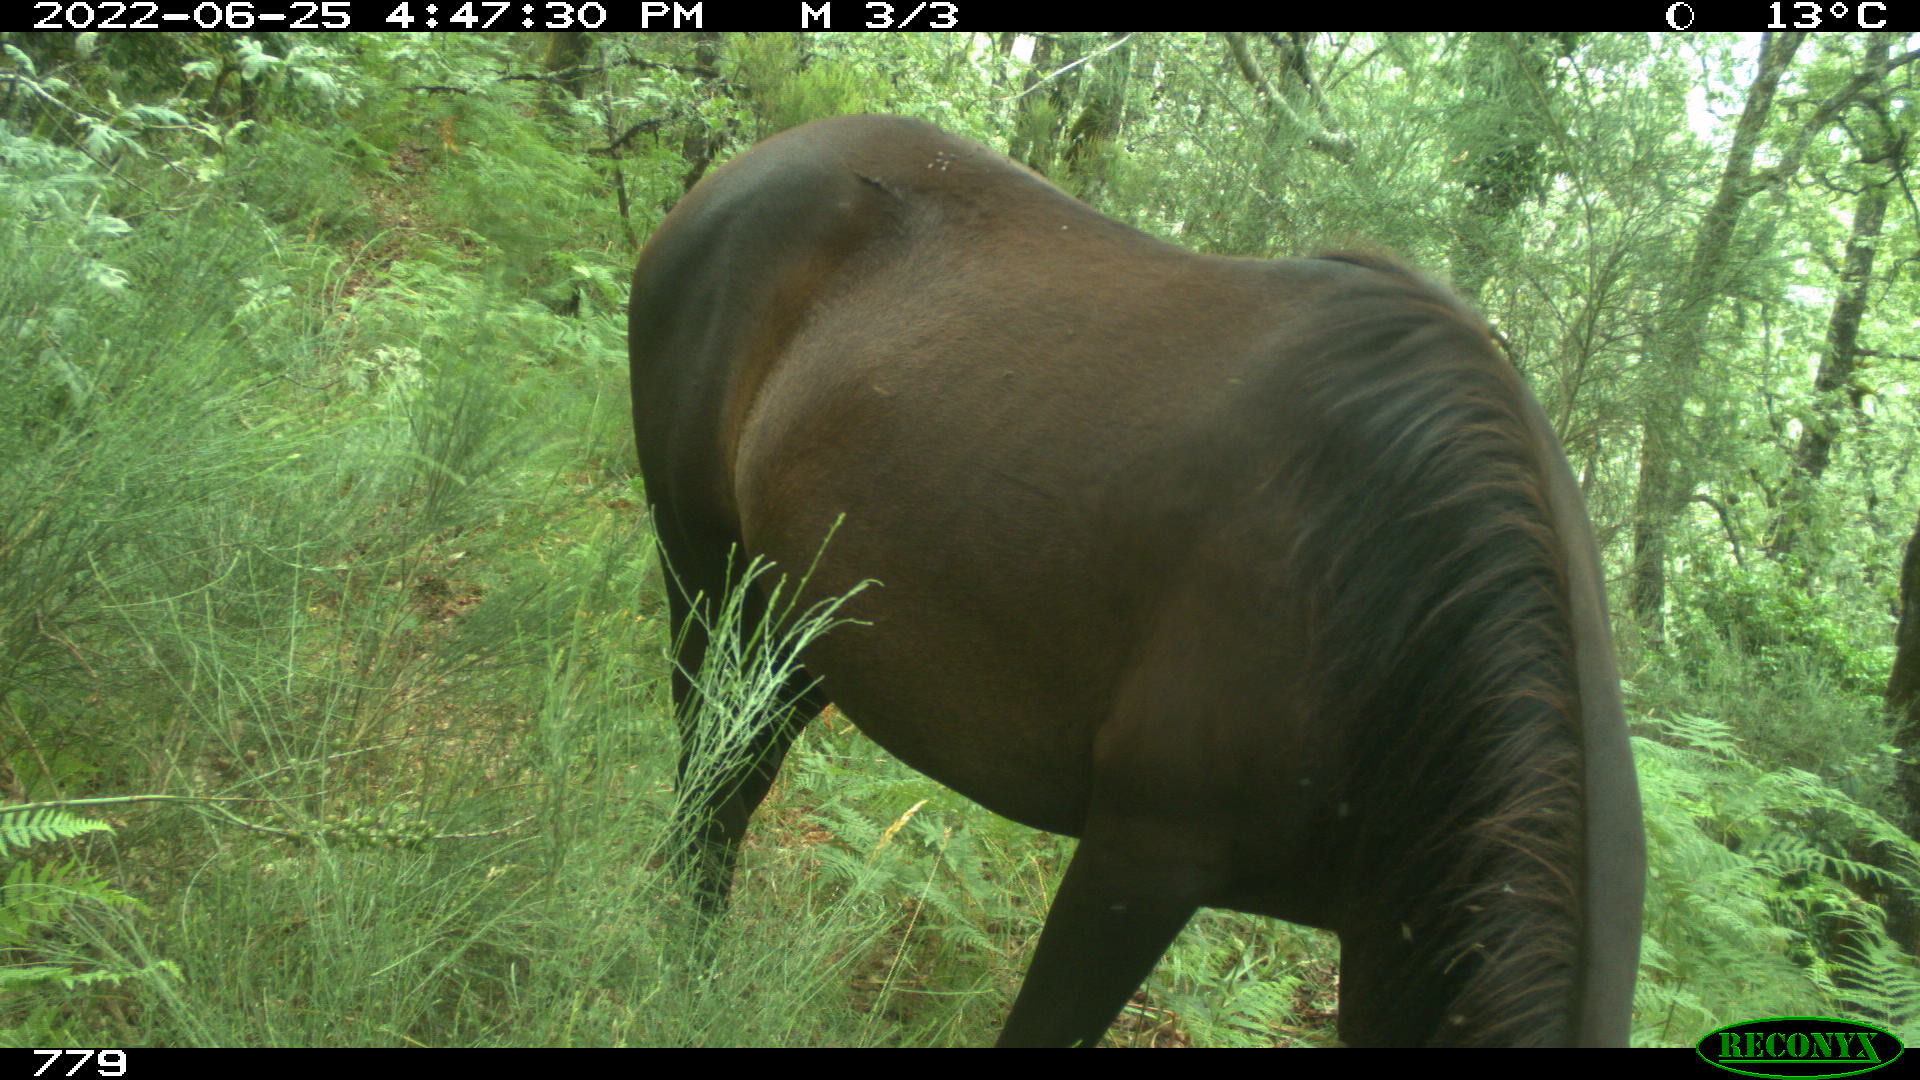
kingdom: Animalia
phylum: Chordata
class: Mammalia
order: Perissodactyla
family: Equidae
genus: Equus
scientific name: Equus caballus
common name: Horse
